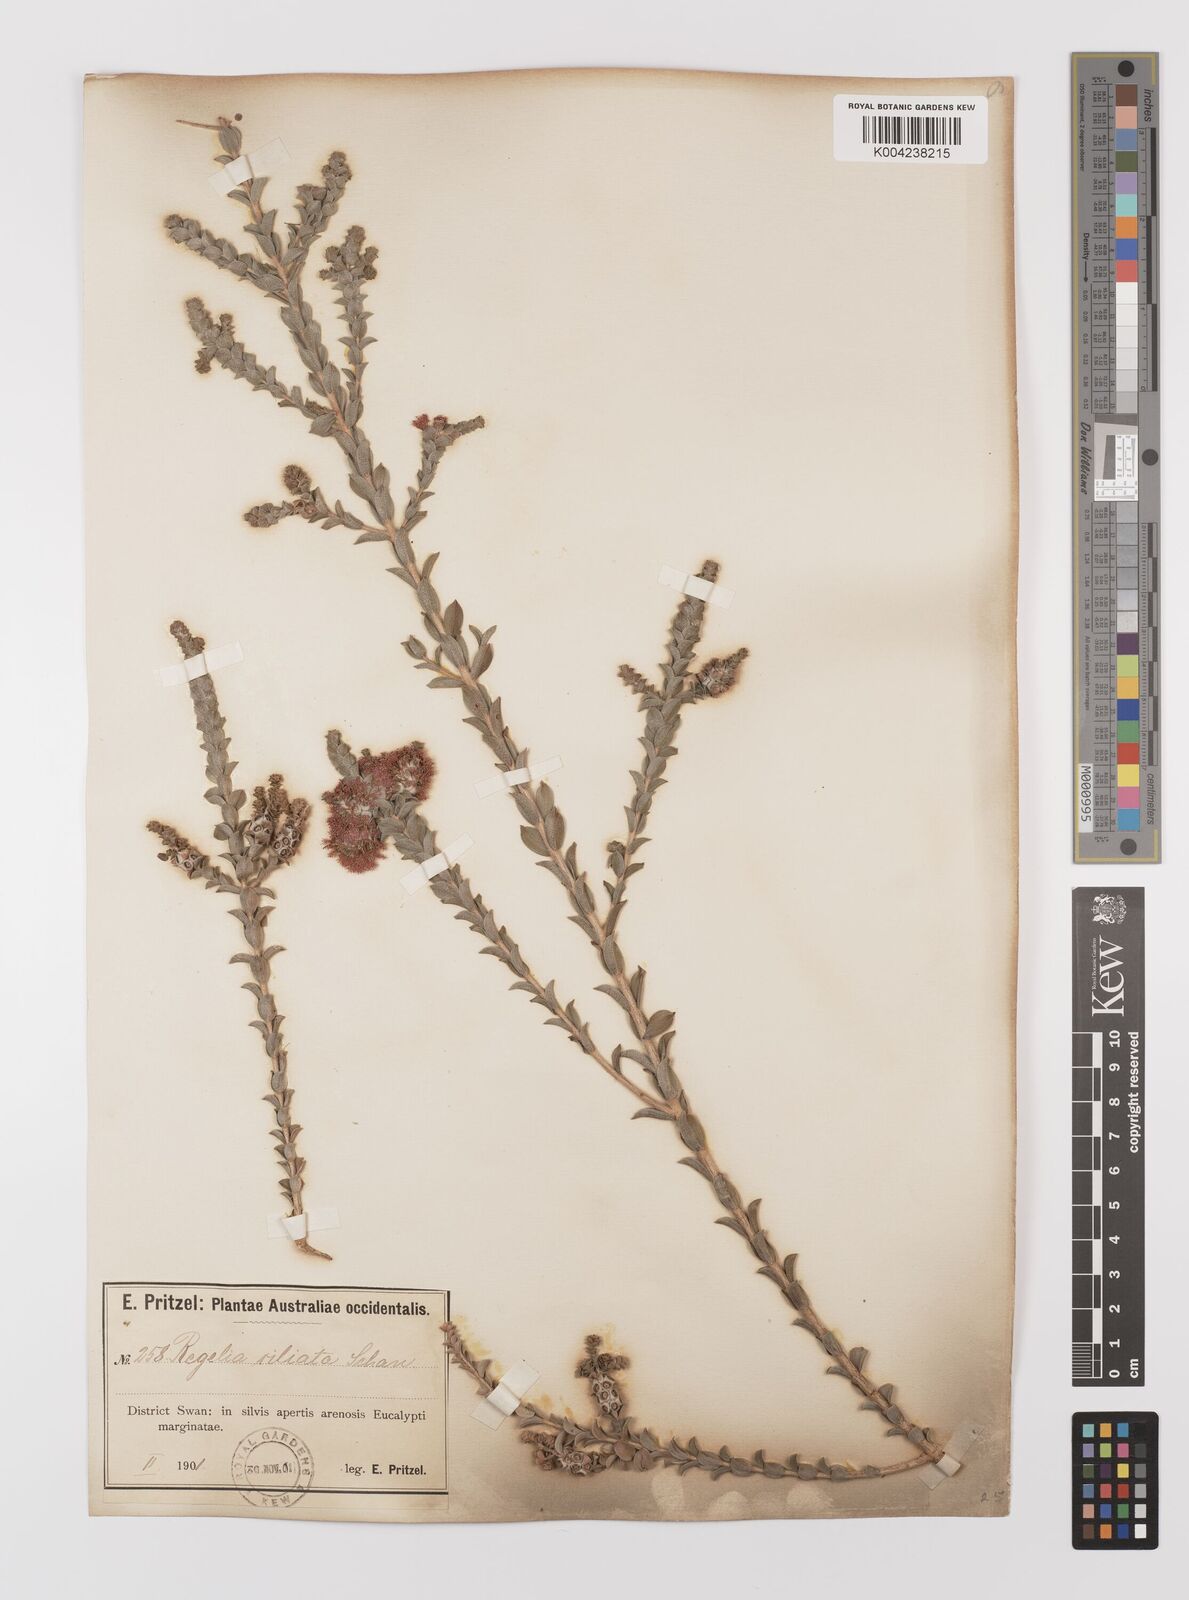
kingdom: Plantae
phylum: Tracheophyta
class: Magnoliopsida
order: Myrtales
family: Myrtaceae
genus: Melaleuca
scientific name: Melaleuca crossota
